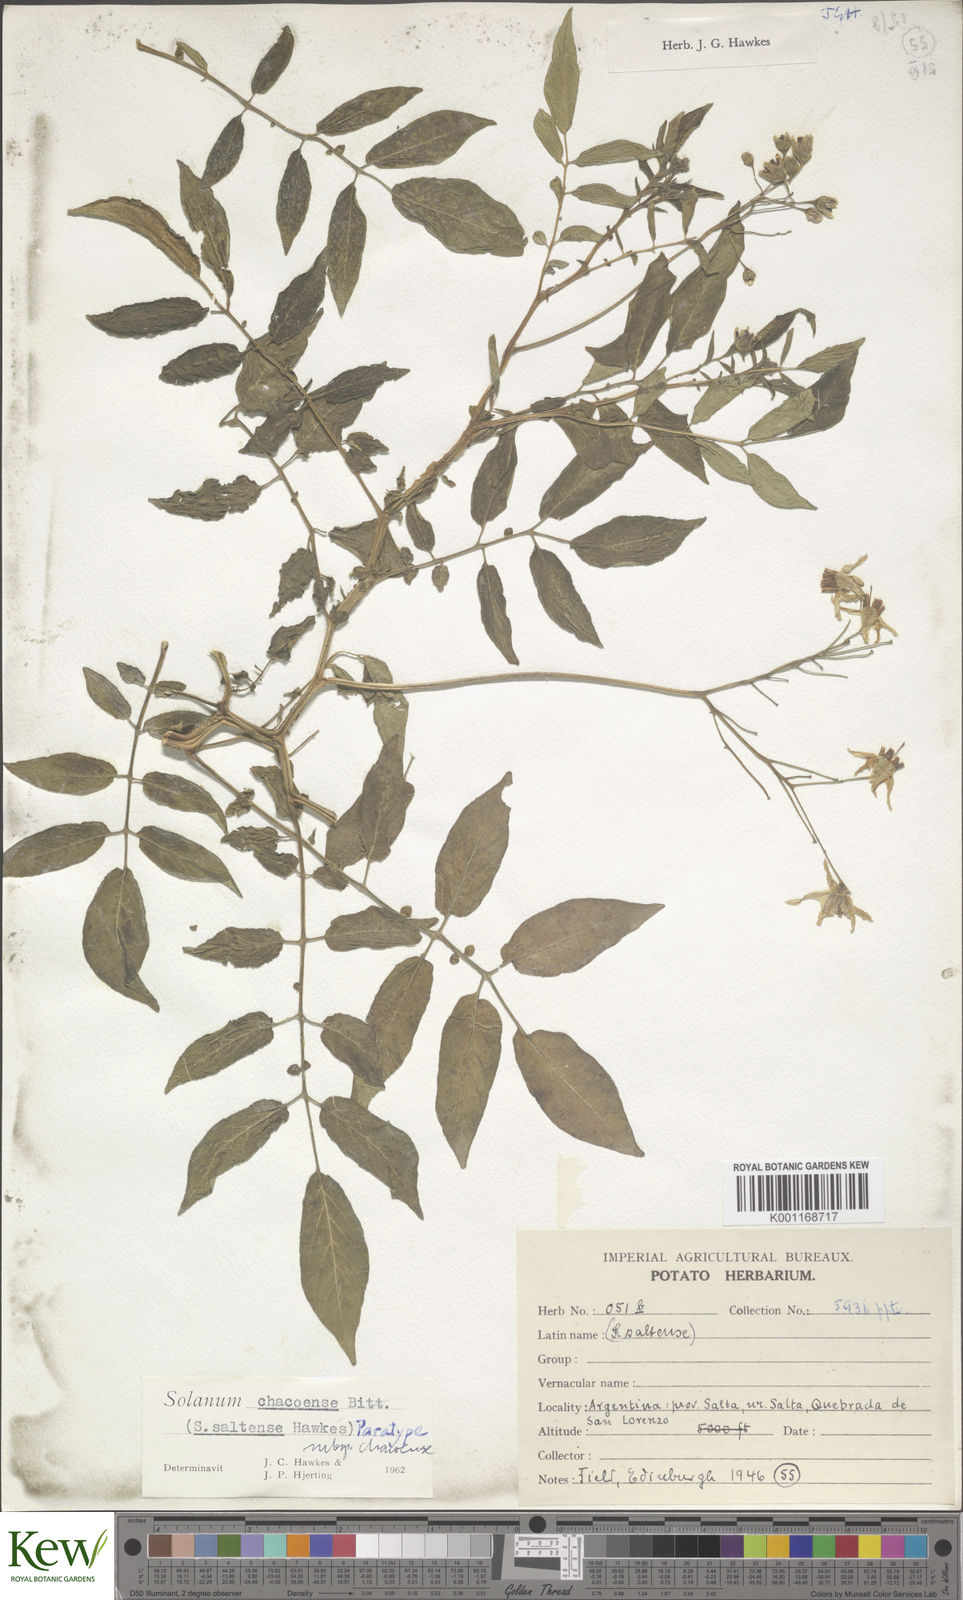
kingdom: Plantae
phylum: Tracheophyta
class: Magnoliopsida
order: Solanales
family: Solanaceae
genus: Solanum
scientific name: Solanum chacoense
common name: Chaco potato
